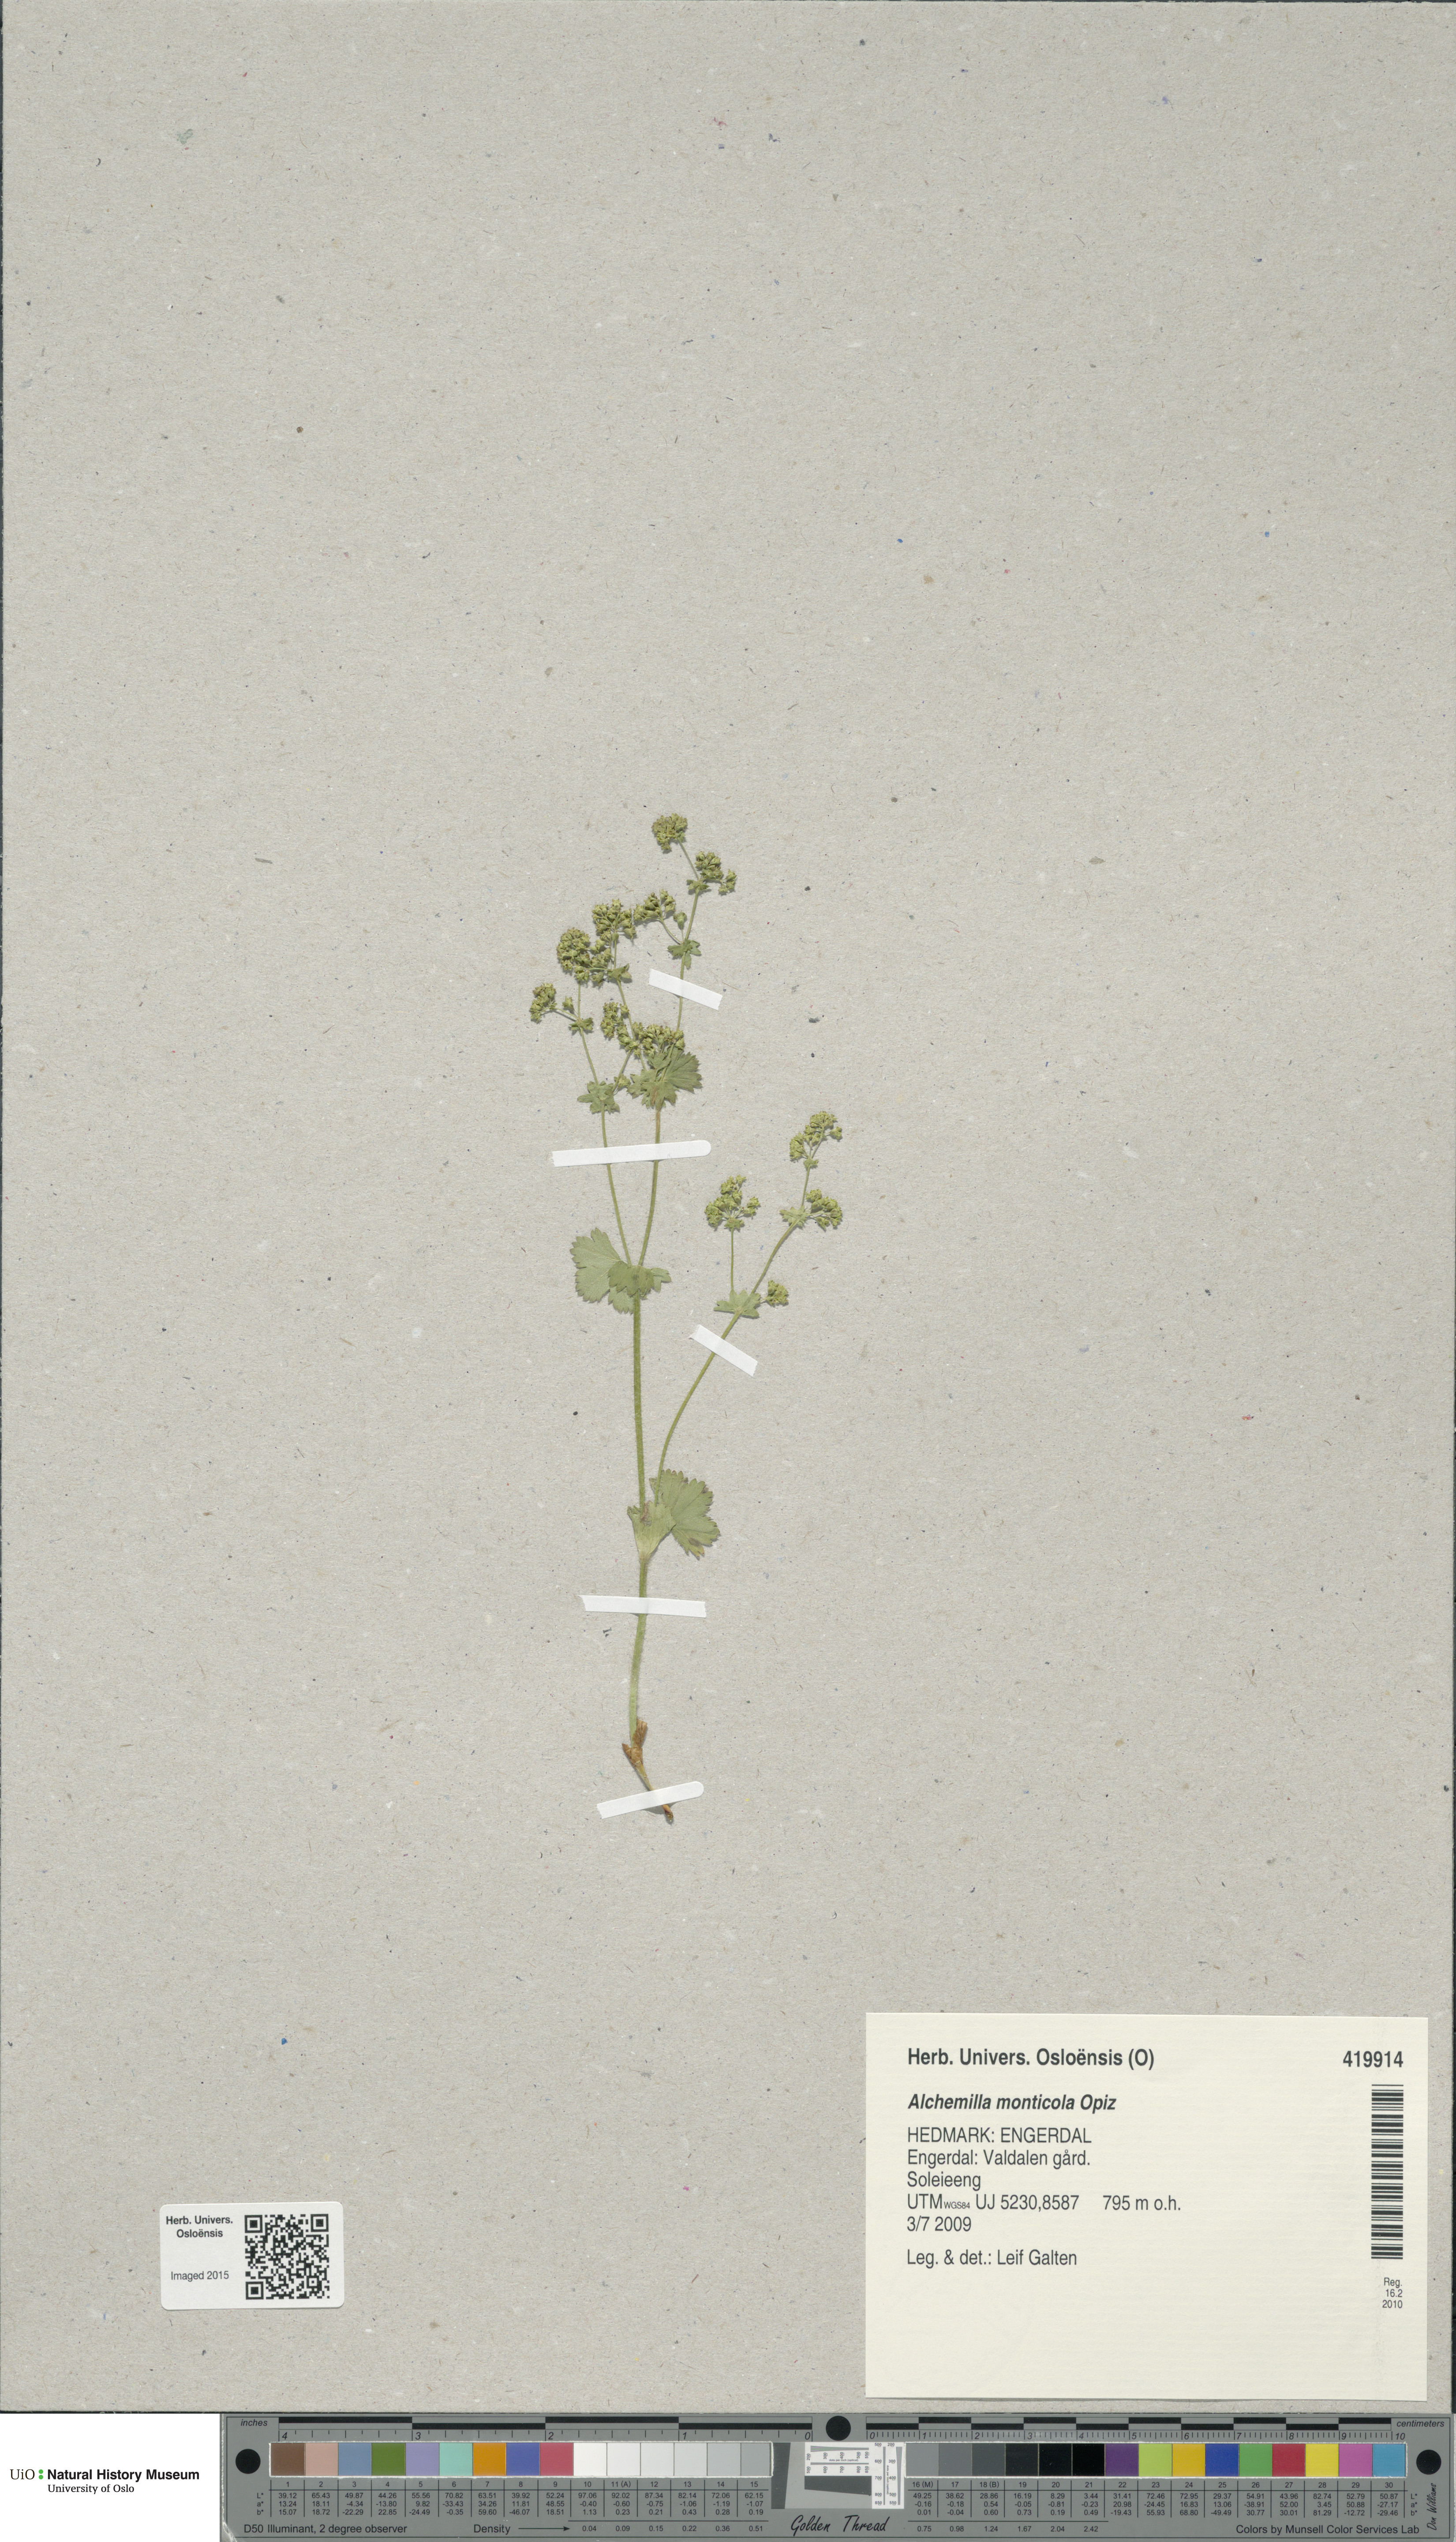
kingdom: Plantae
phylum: Tracheophyta
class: Magnoliopsida
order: Rosales
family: Rosaceae
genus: Alchemilla
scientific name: Alchemilla monticola
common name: Hairy lady's mantle
